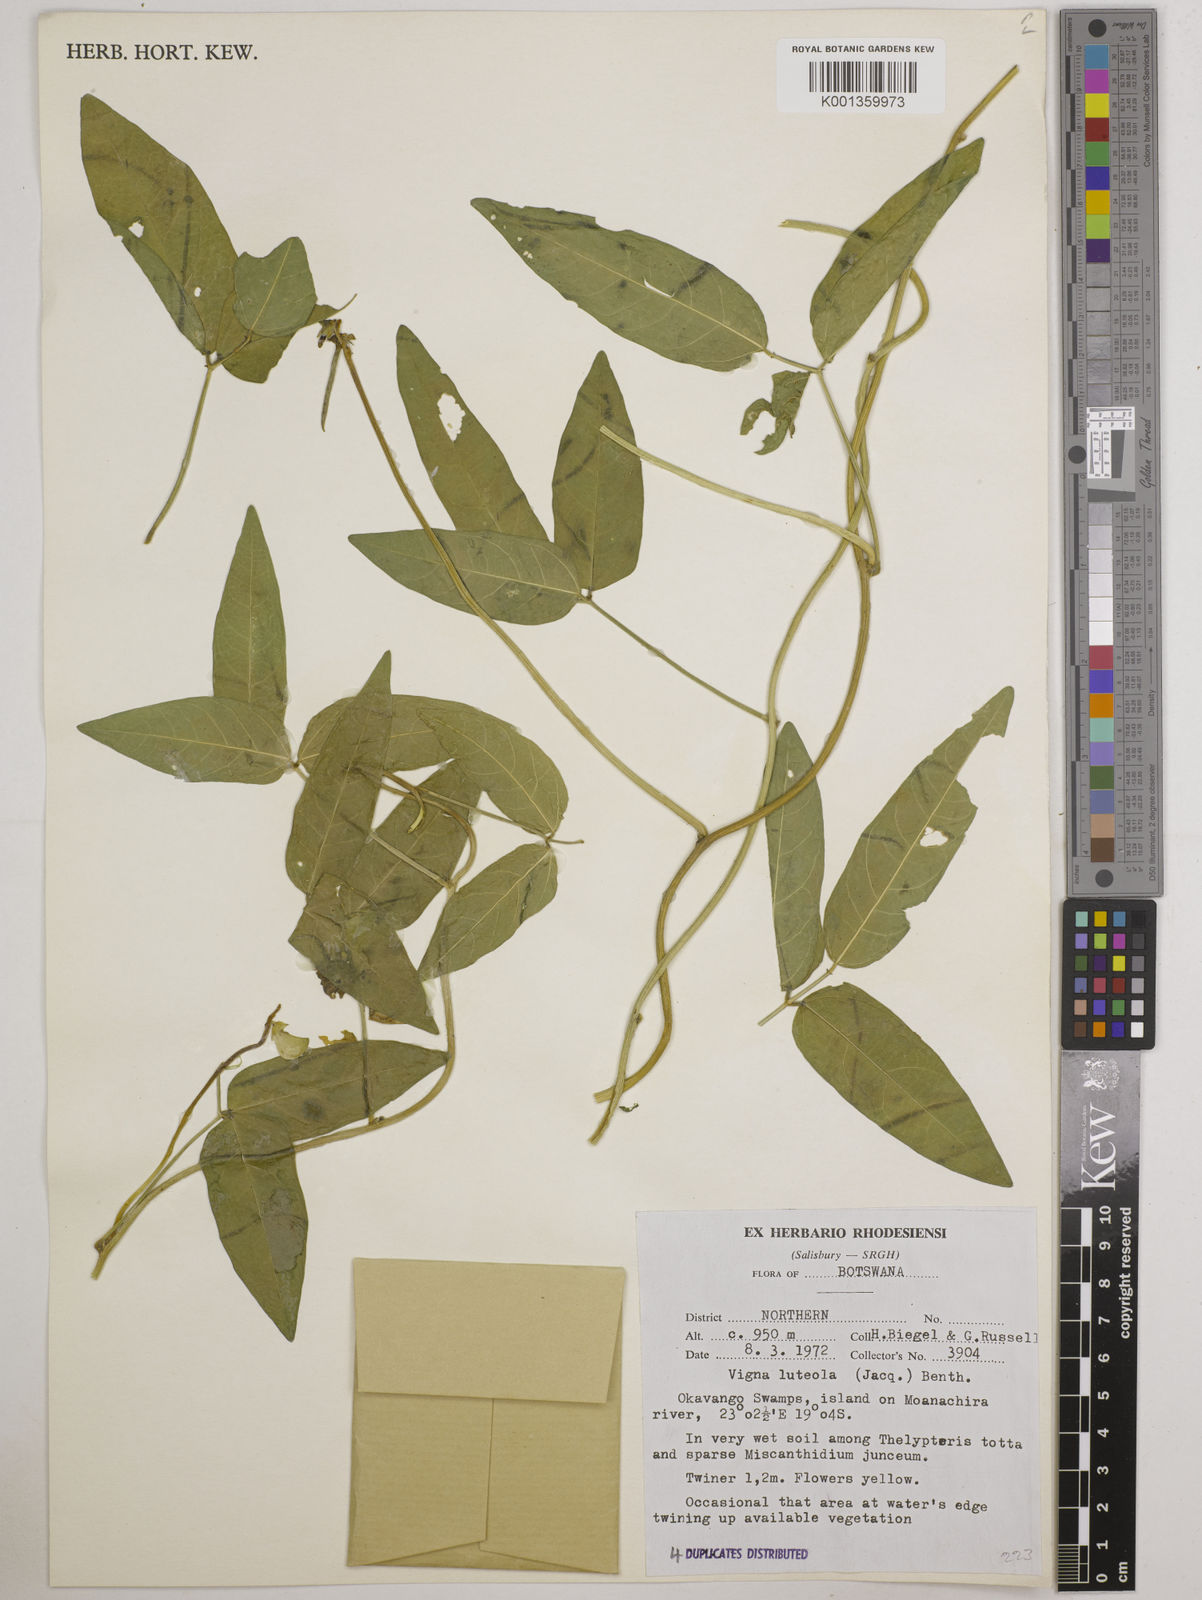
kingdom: Plantae
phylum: Tracheophyta
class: Magnoliopsida
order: Fabales
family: Fabaceae
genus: Vigna
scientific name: Vigna luteola
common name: Hairypod cowpea
